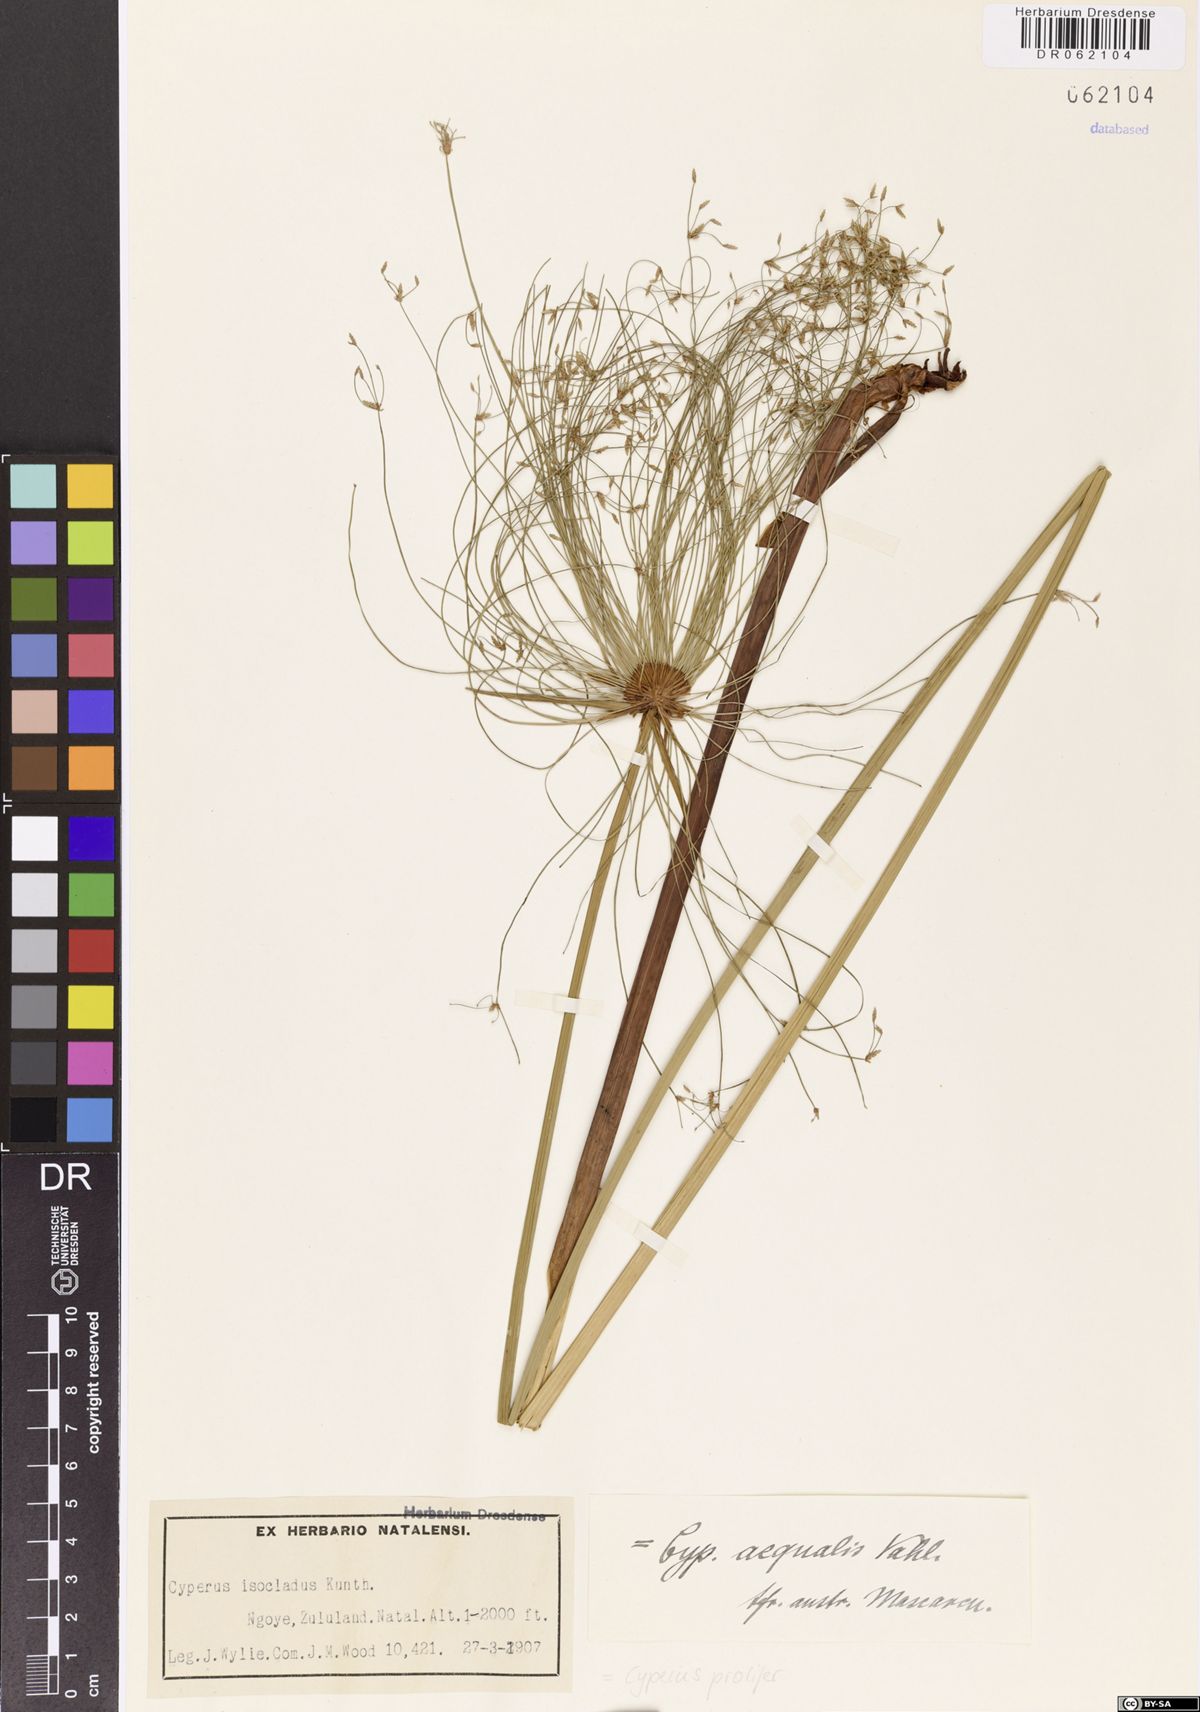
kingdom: Plantae
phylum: Tracheophyta
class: Liliopsida
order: Poales
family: Cyperaceae
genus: Cyperus
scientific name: Cyperus prolifer
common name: Miniature flatsedge
